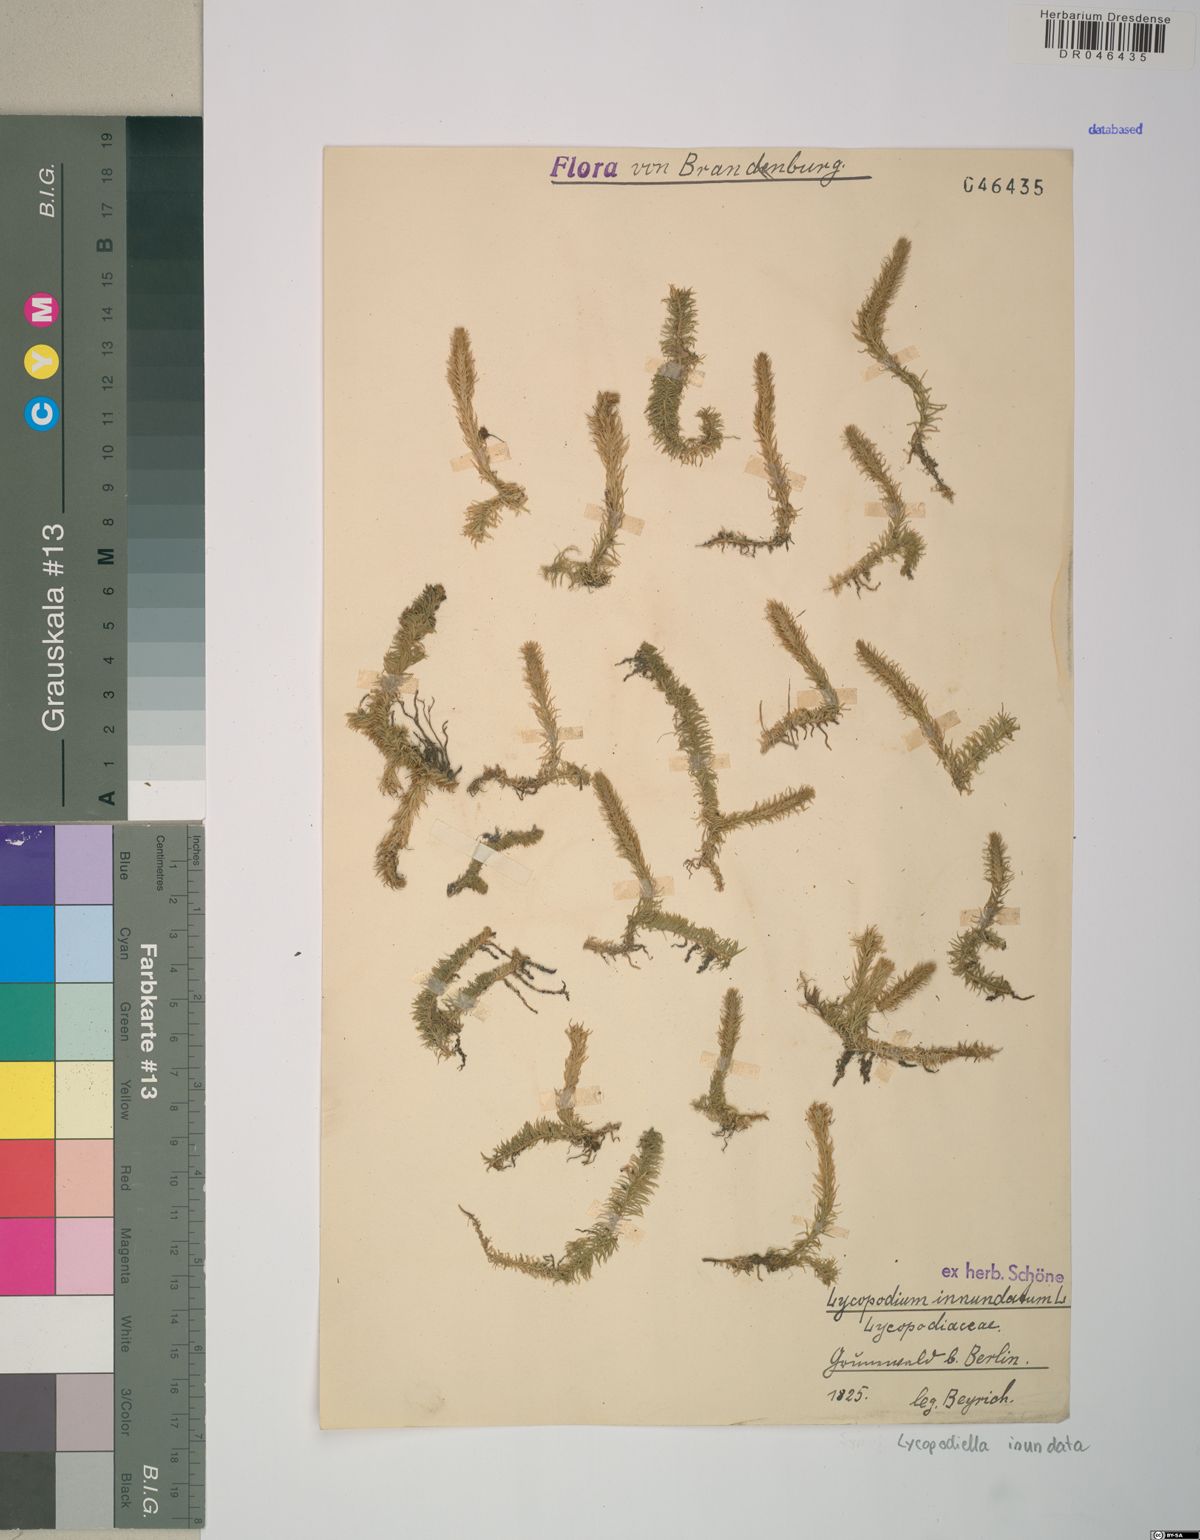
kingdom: Plantae
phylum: Tracheophyta
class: Lycopodiopsida
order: Lycopodiales
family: Lycopodiaceae
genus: Lycopodiella
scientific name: Lycopodiella inundata
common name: Marsh clubmoss
